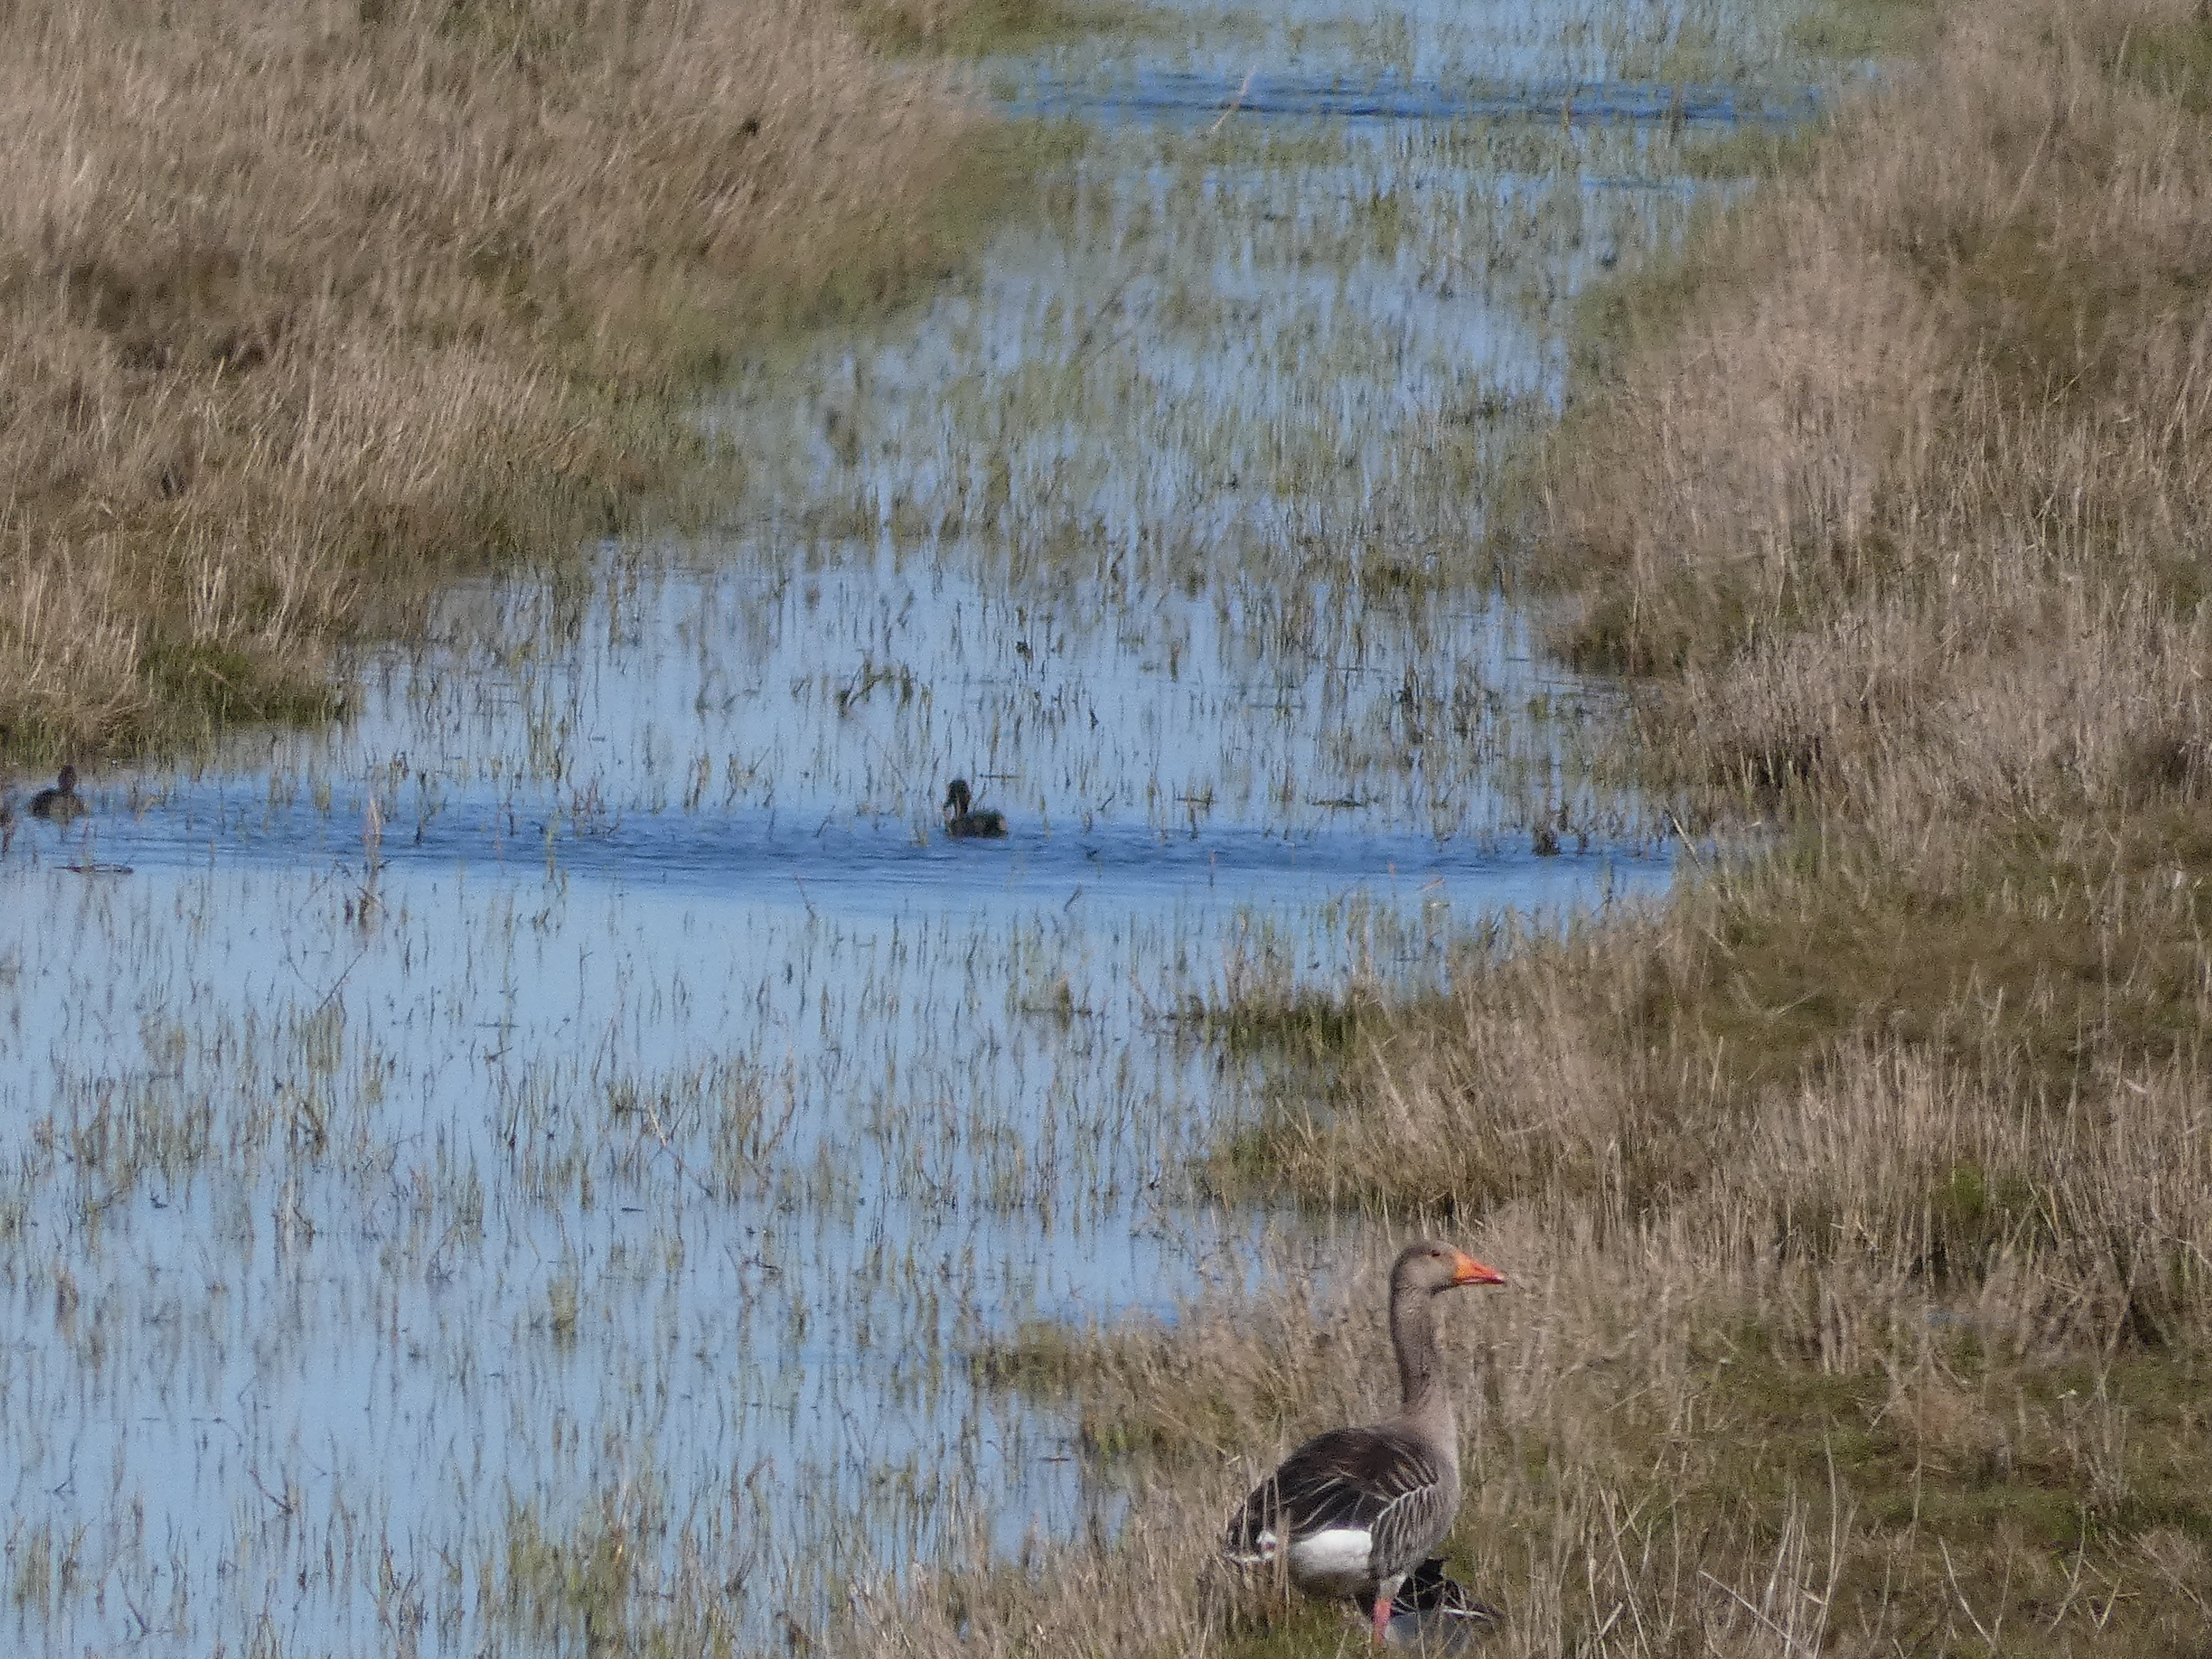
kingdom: Animalia
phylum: Chordata
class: Aves
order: Anseriformes
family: Anatidae
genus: Anser
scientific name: Anser anser
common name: Grågås
